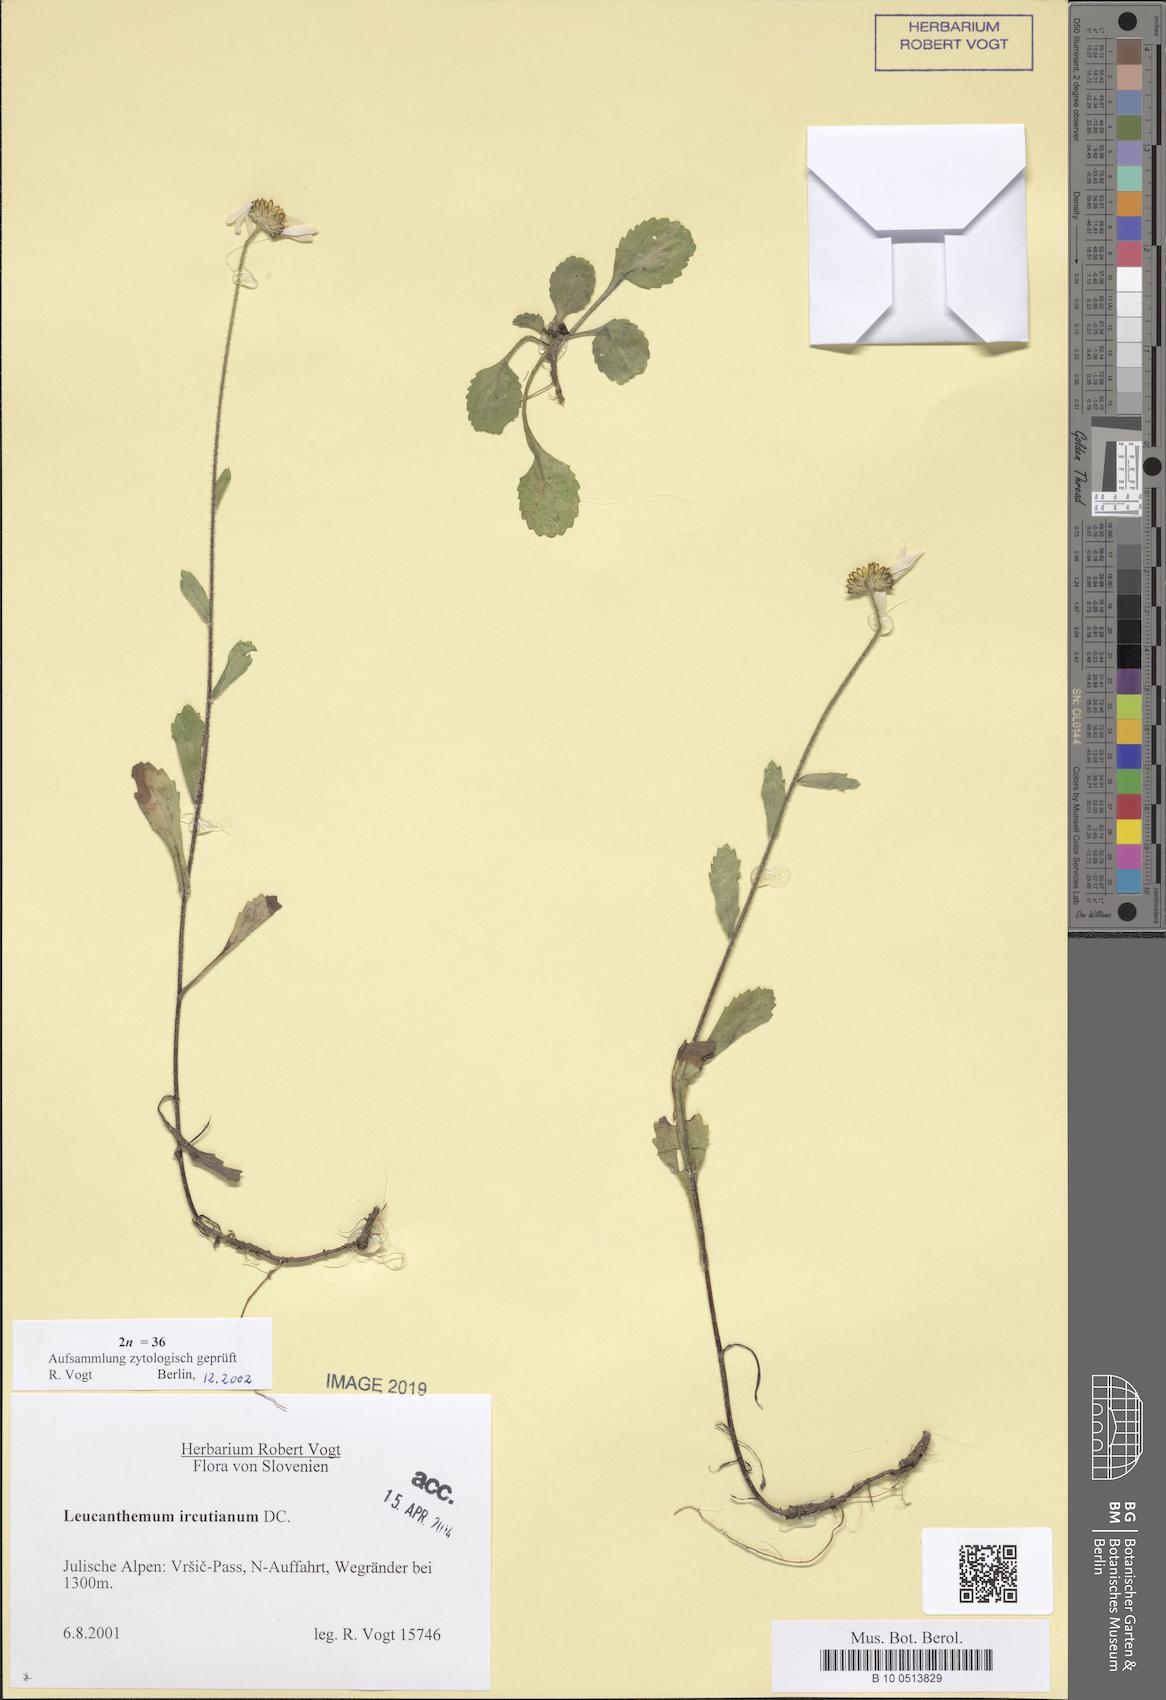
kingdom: Plantae
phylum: Tracheophyta
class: Magnoliopsida
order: Asterales
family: Asteraceae
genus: Leucanthemum
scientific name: Leucanthemum ircutianum
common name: Daisy
